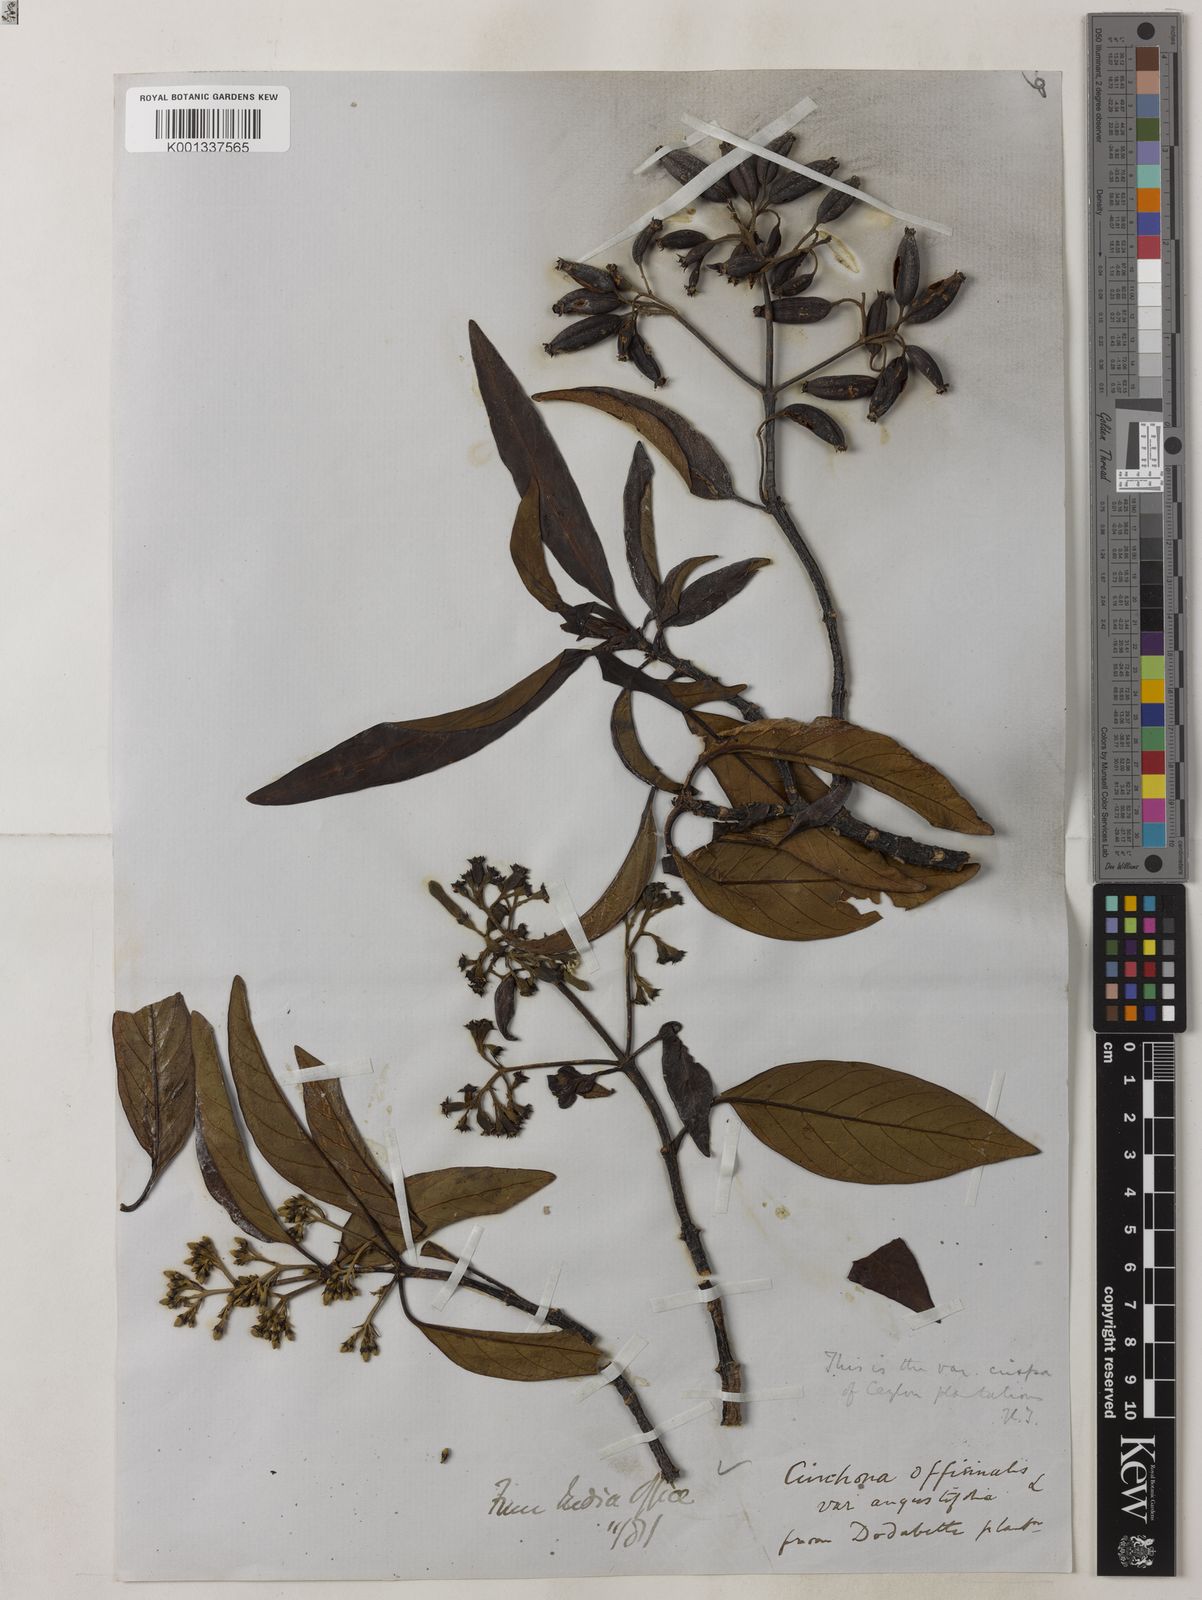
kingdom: Plantae
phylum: Tracheophyta
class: Magnoliopsida
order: Gentianales
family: Rubiaceae
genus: Cinchona
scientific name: Cinchona officinalis
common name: Lojabark
